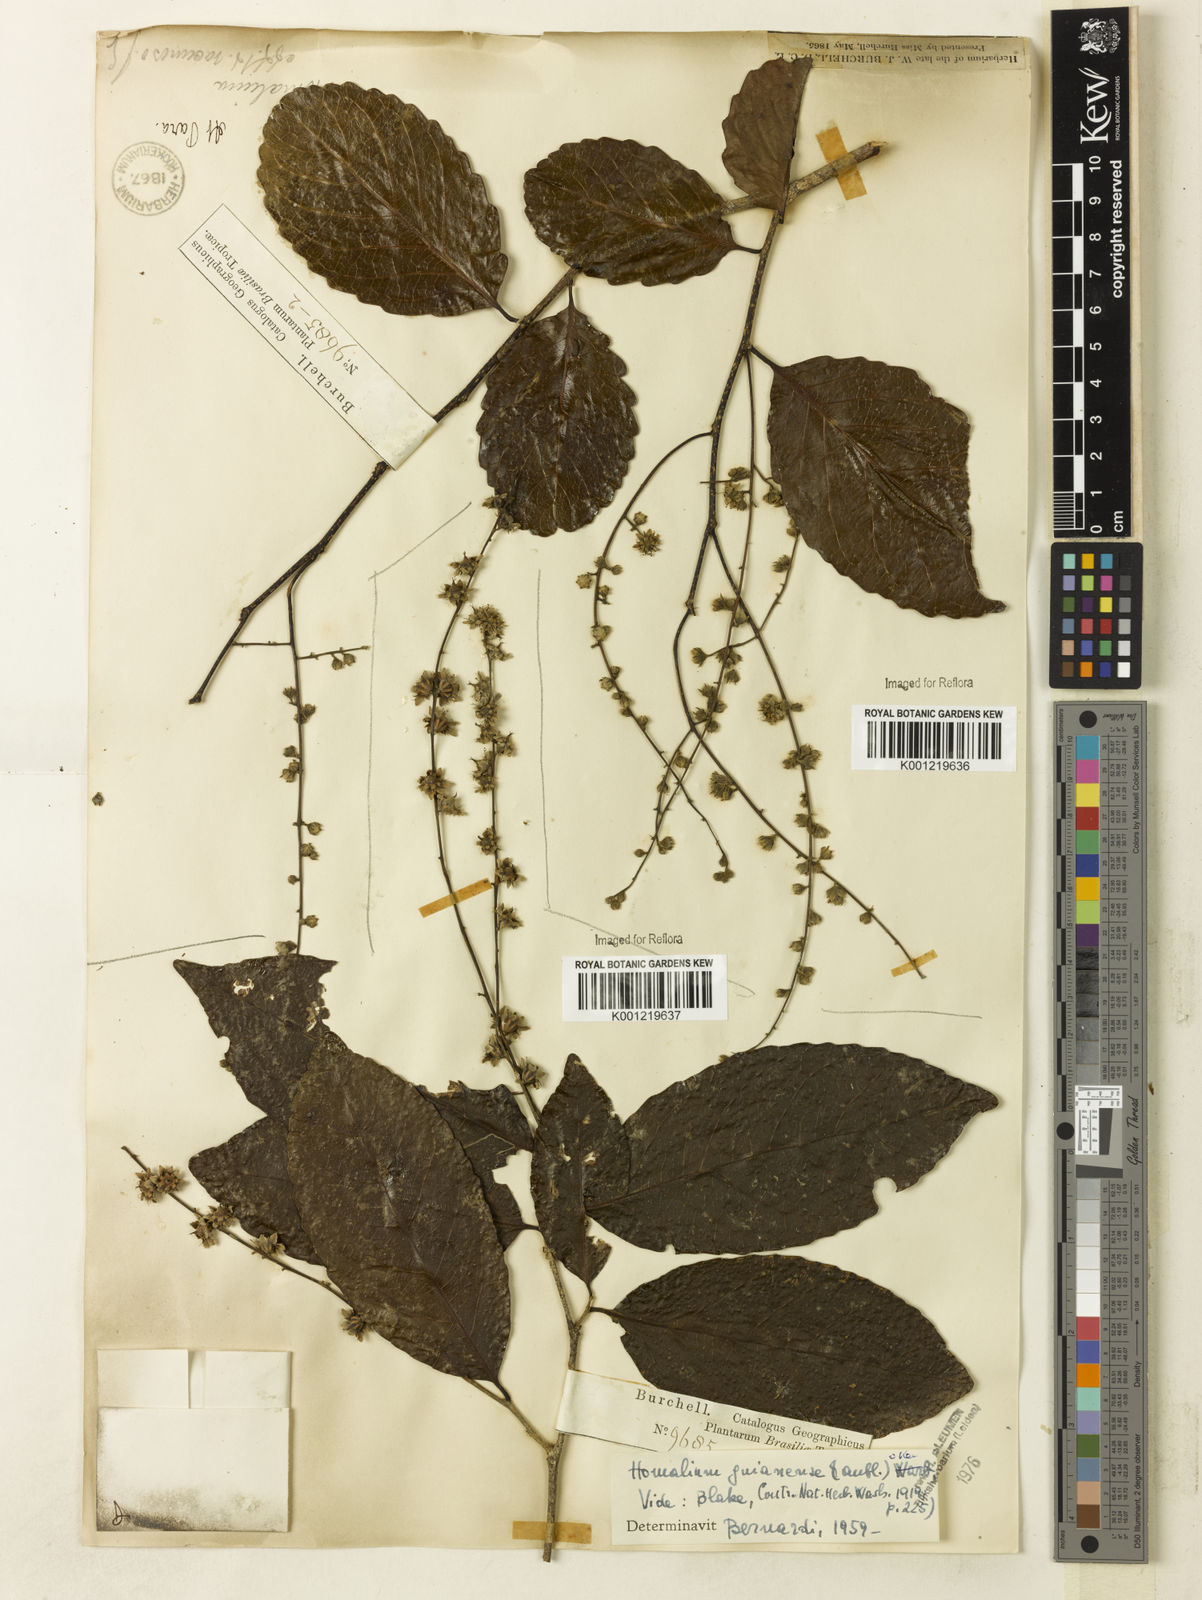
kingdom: Plantae
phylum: Tracheophyta
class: Magnoliopsida
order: Malpighiales
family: Salicaceae
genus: Homalium
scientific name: Homalium guianense
